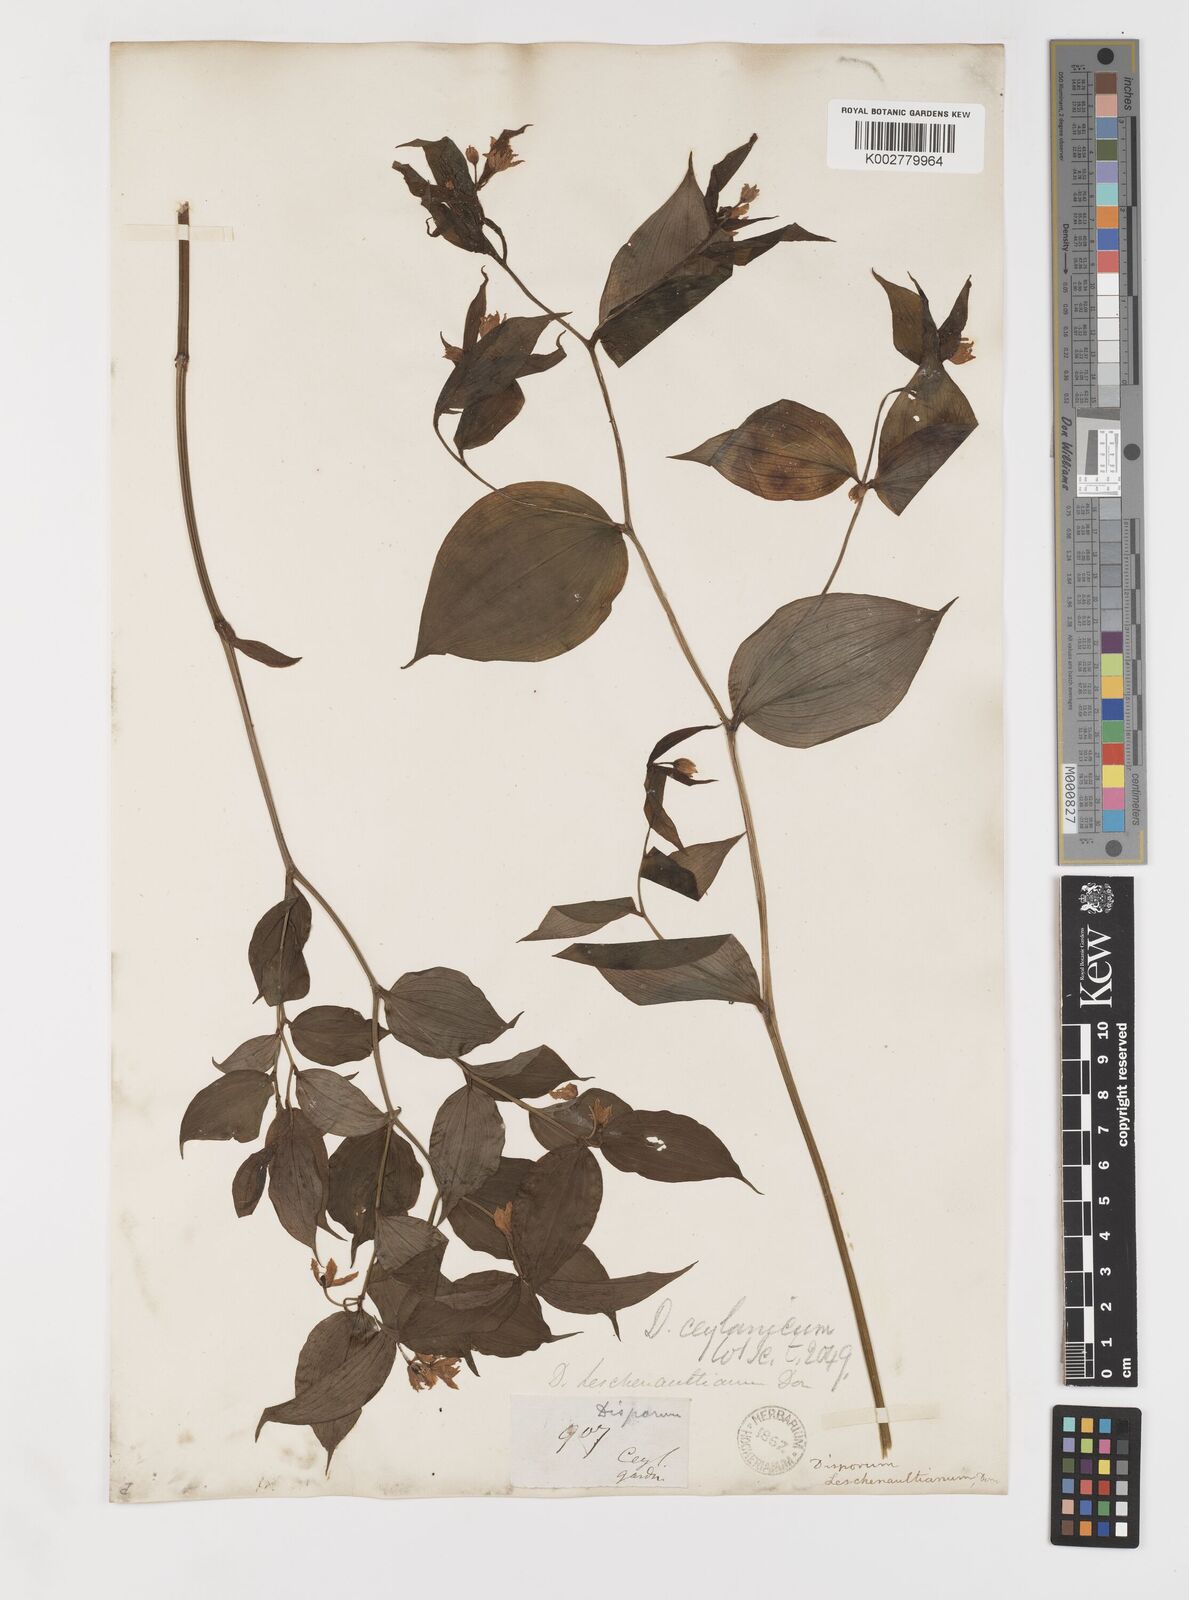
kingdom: Plantae
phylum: Tracheophyta
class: Liliopsida
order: Liliales
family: Colchicaceae
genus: Disporum
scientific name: Disporum cantoniense
